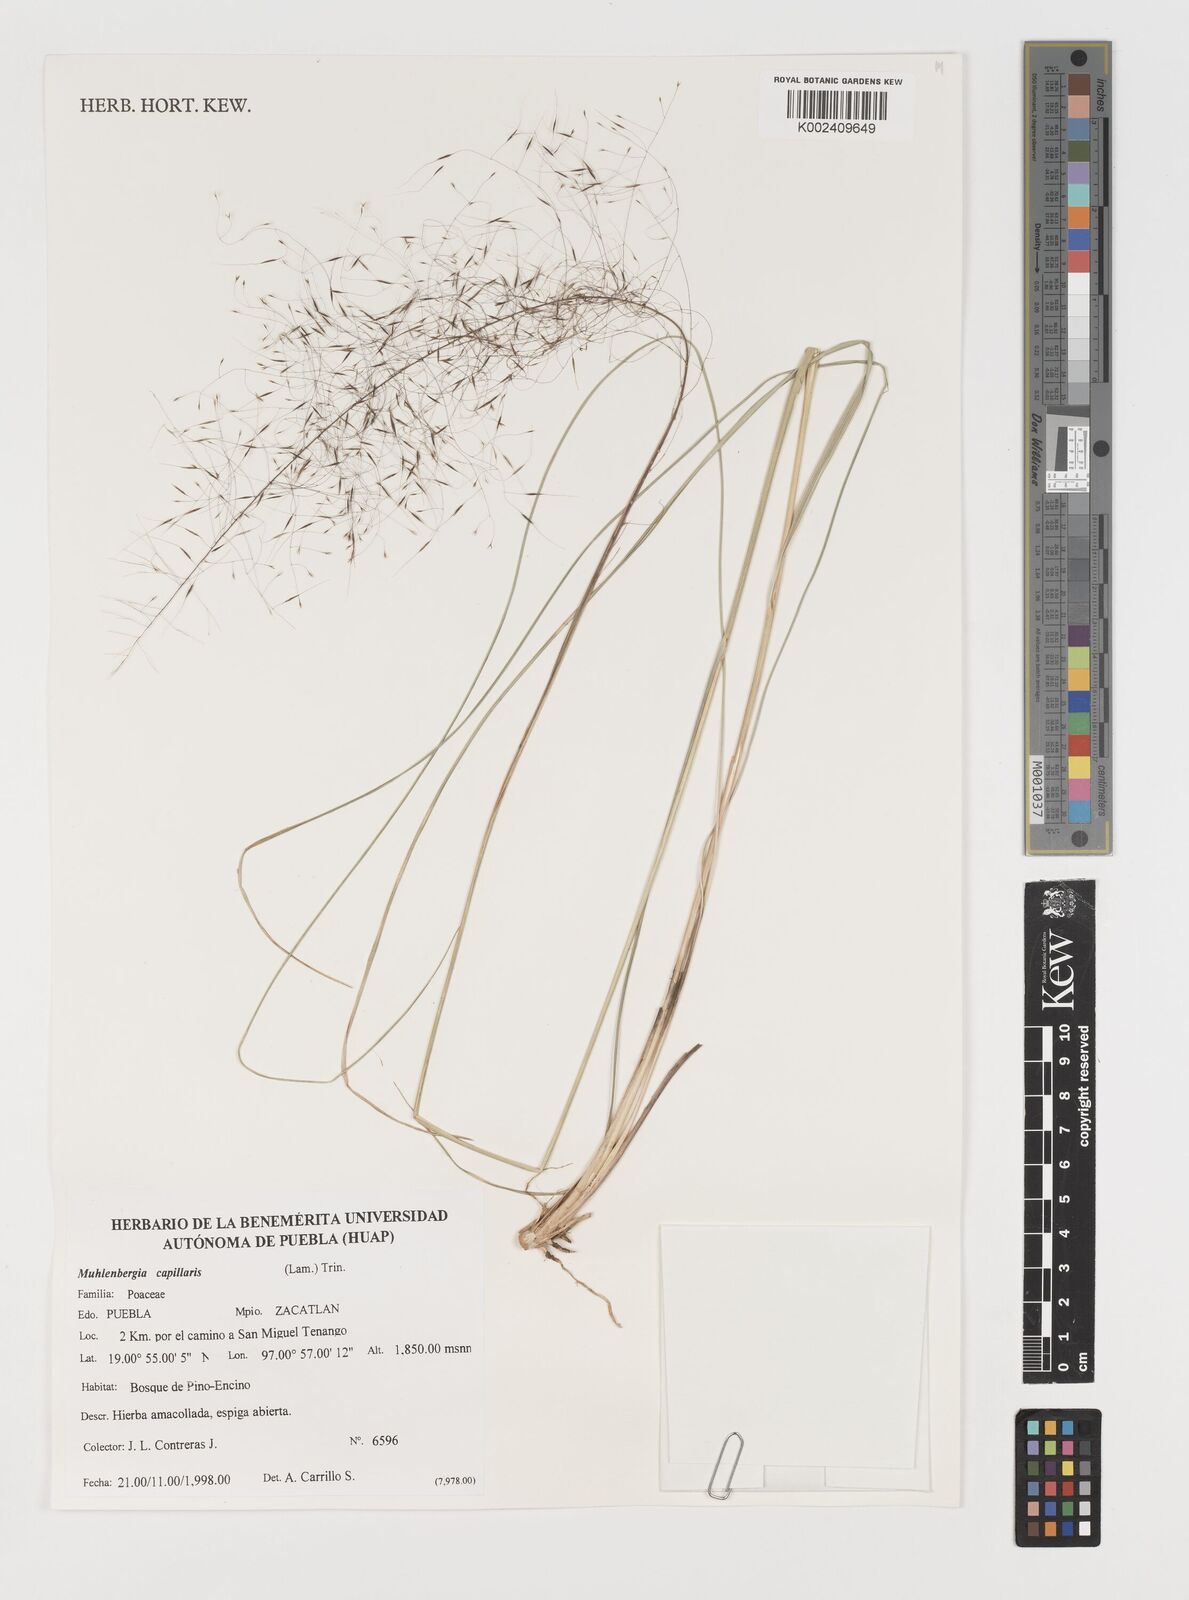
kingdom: Plantae
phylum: Tracheophyta
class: Liliopsida
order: Poales
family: Poaceae
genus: Muhlenbergia
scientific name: Muhlenbergia capillaris
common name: Purple grass
